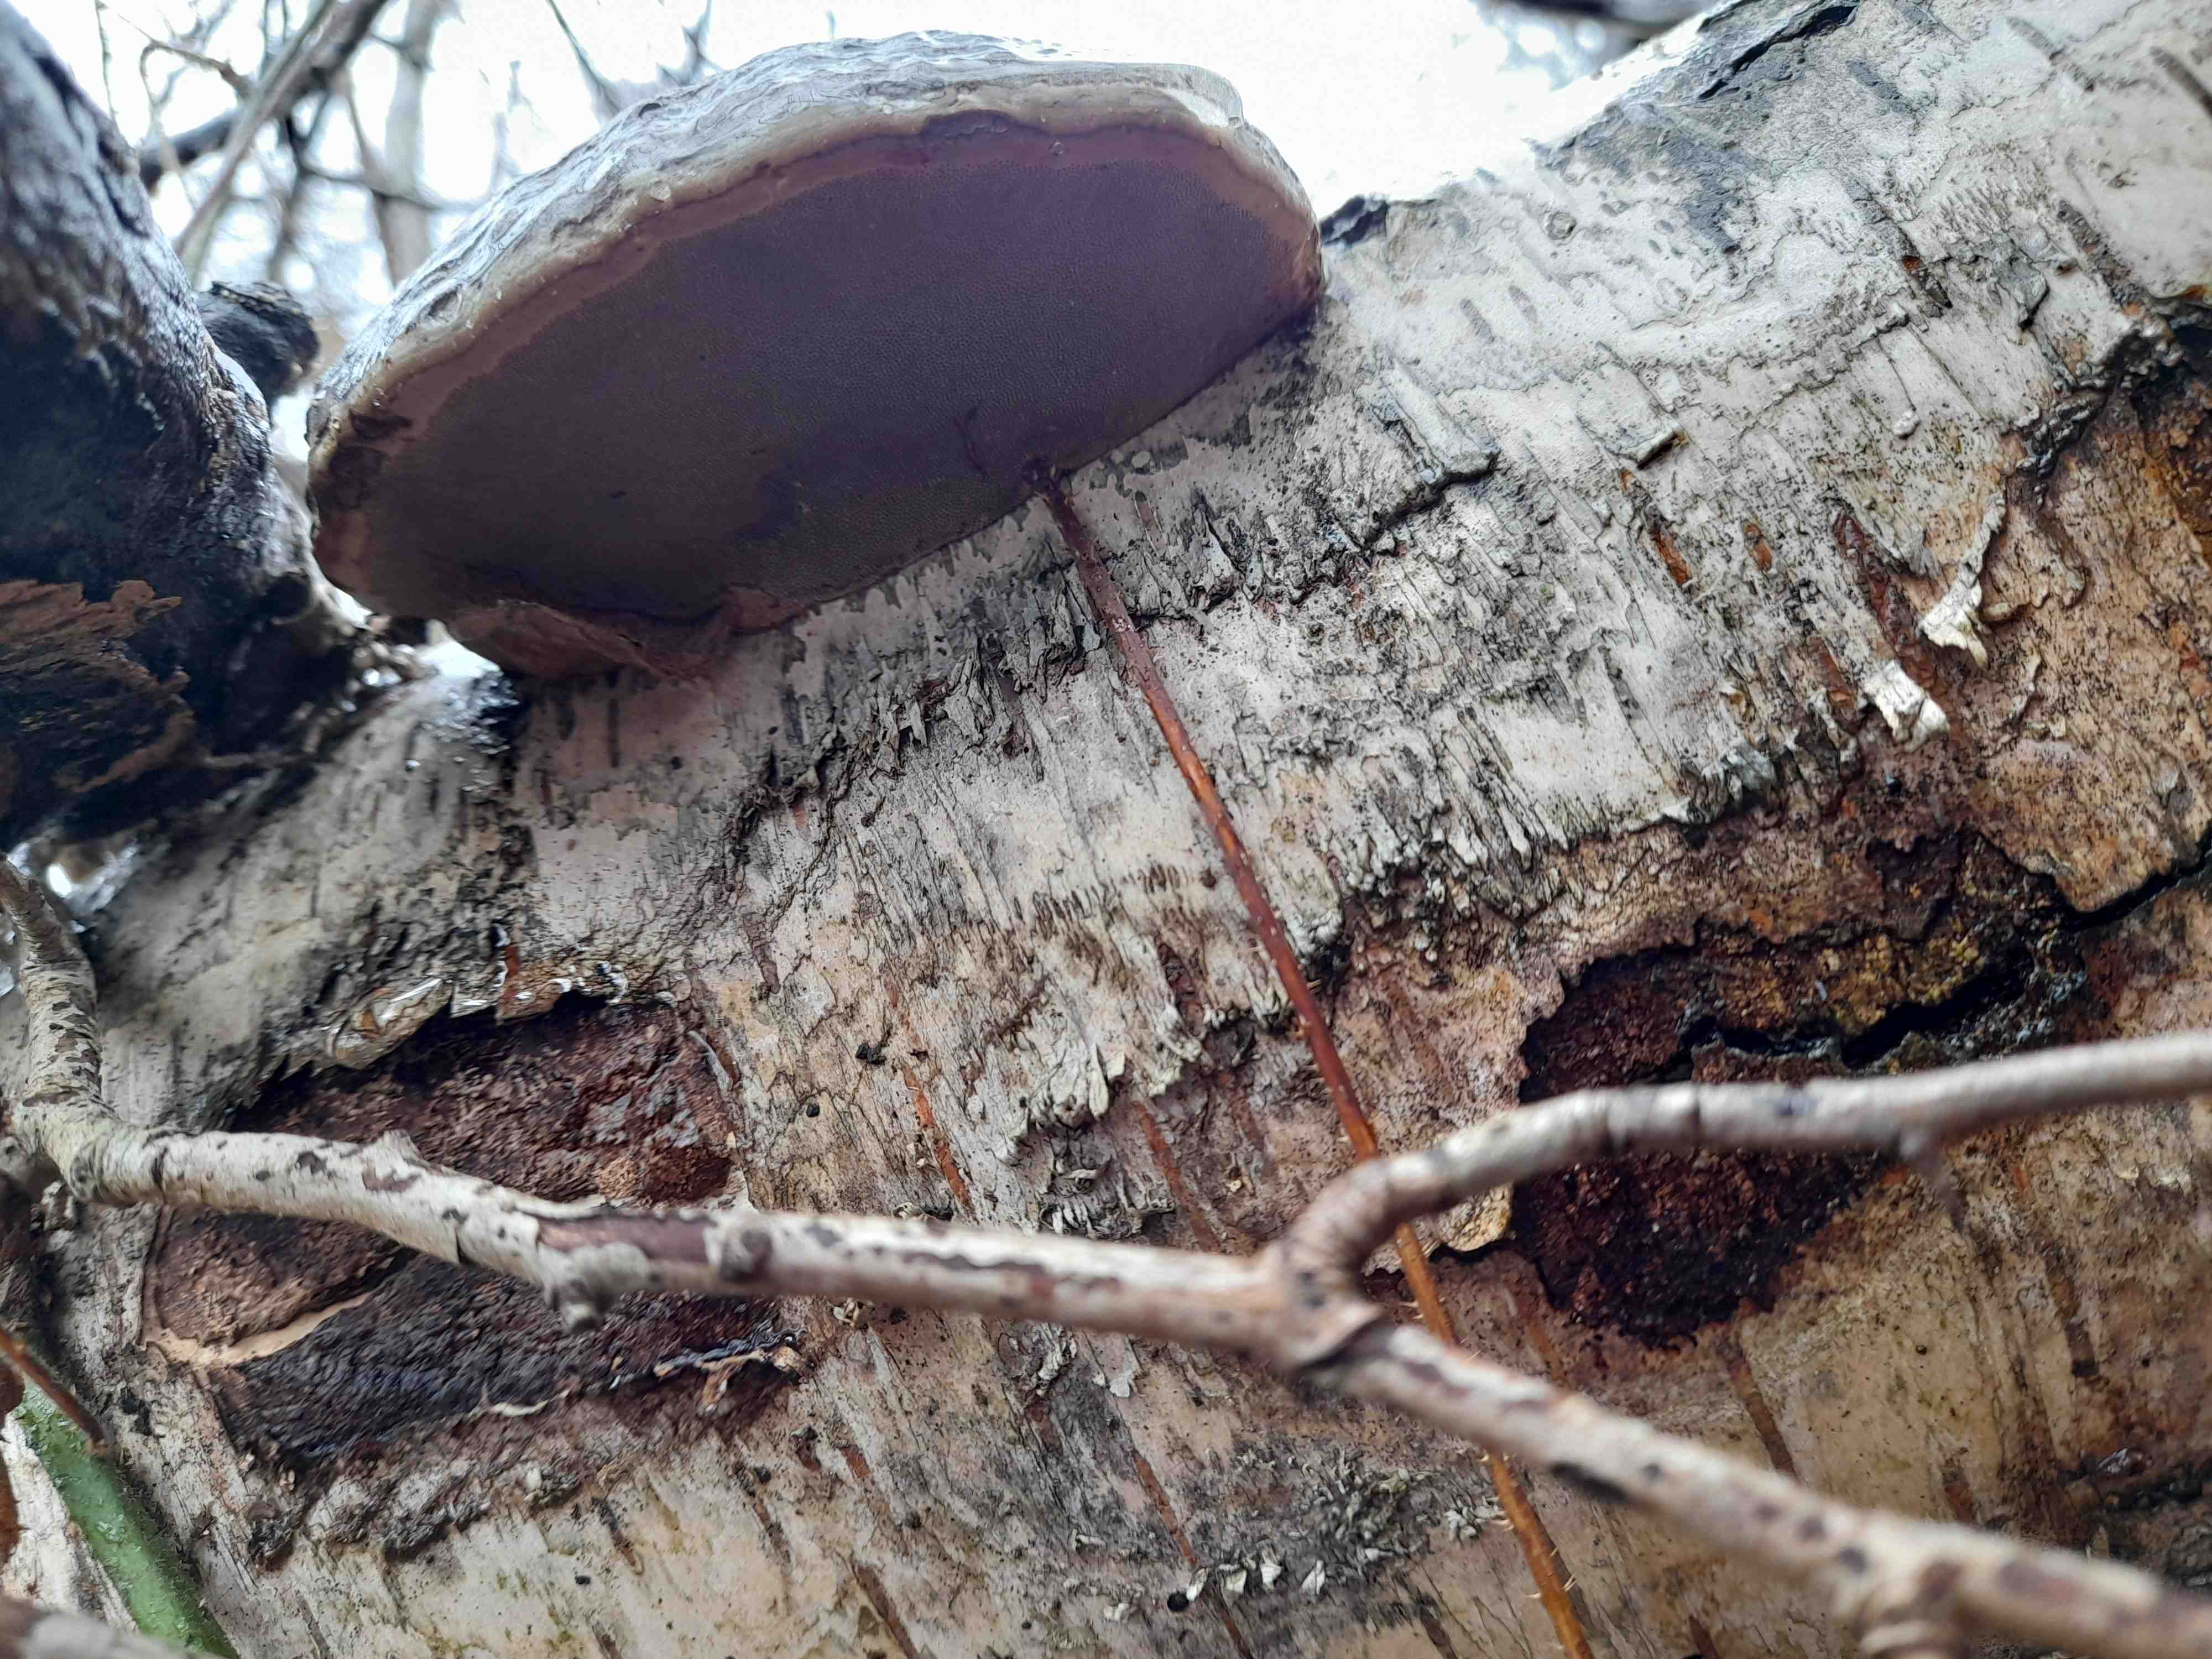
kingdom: Fungi
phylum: Basidiomycota
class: Agaricomycetes
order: Polyporales
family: Polyporaceae
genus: Fomes
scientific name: Fomes fomentarius
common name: tøndersvamp
